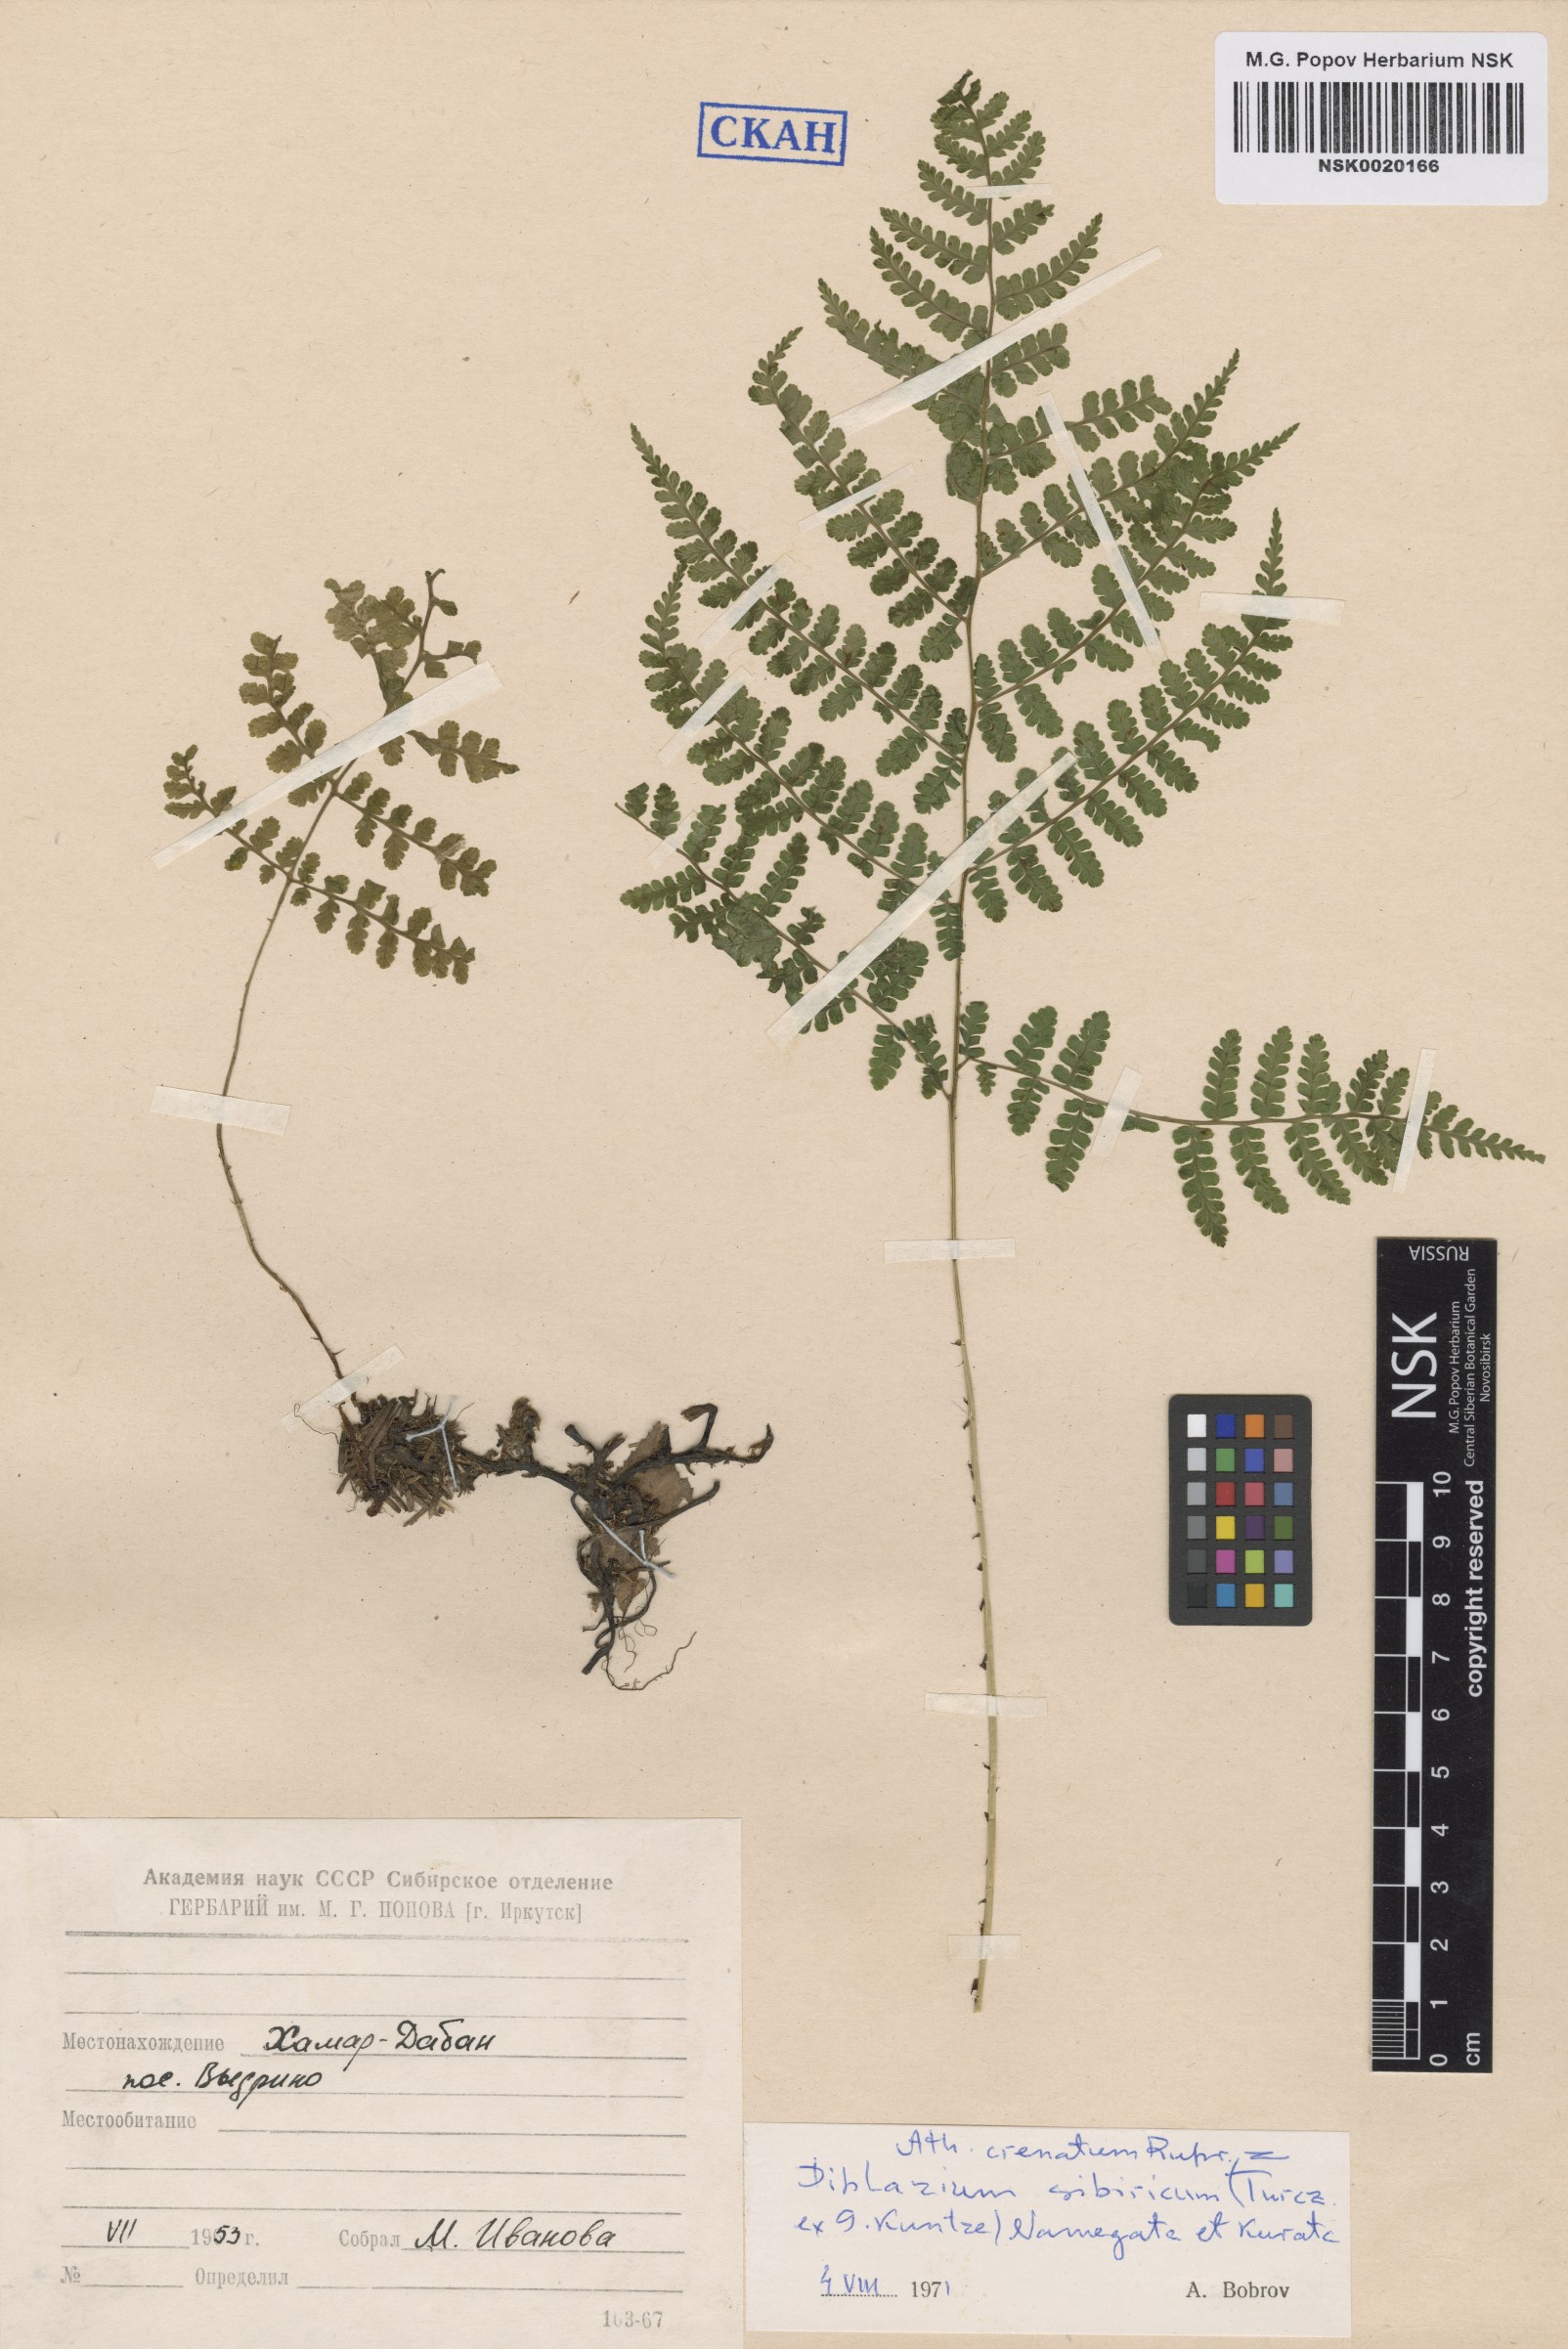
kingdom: Plantae
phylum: Tracheophyta
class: Polypodiopsida
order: Polypodiales
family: Athyriaceae
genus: Diplazium
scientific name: Diplazium sibiricum
